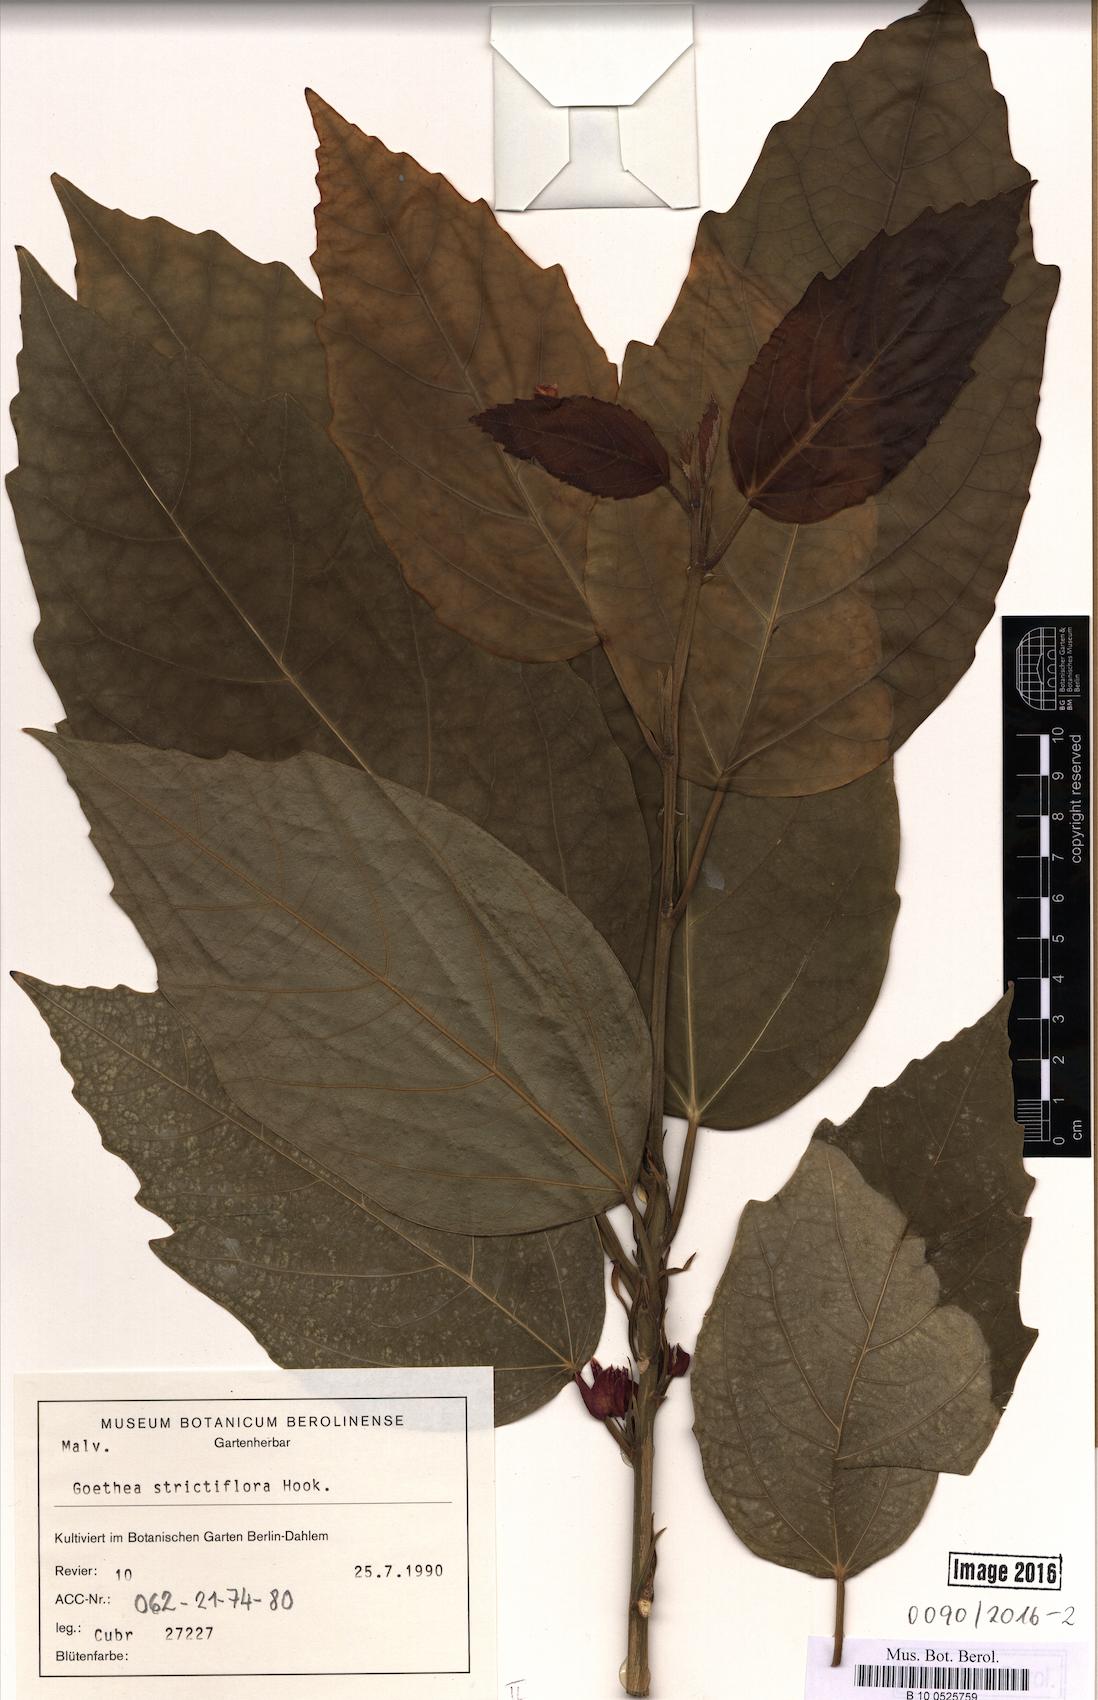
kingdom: Plantae
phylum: Tracheophyta
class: Magnoliopsida
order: Malvales
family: Malvaceae
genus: Pavonia
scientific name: Pavonia strictiflora
